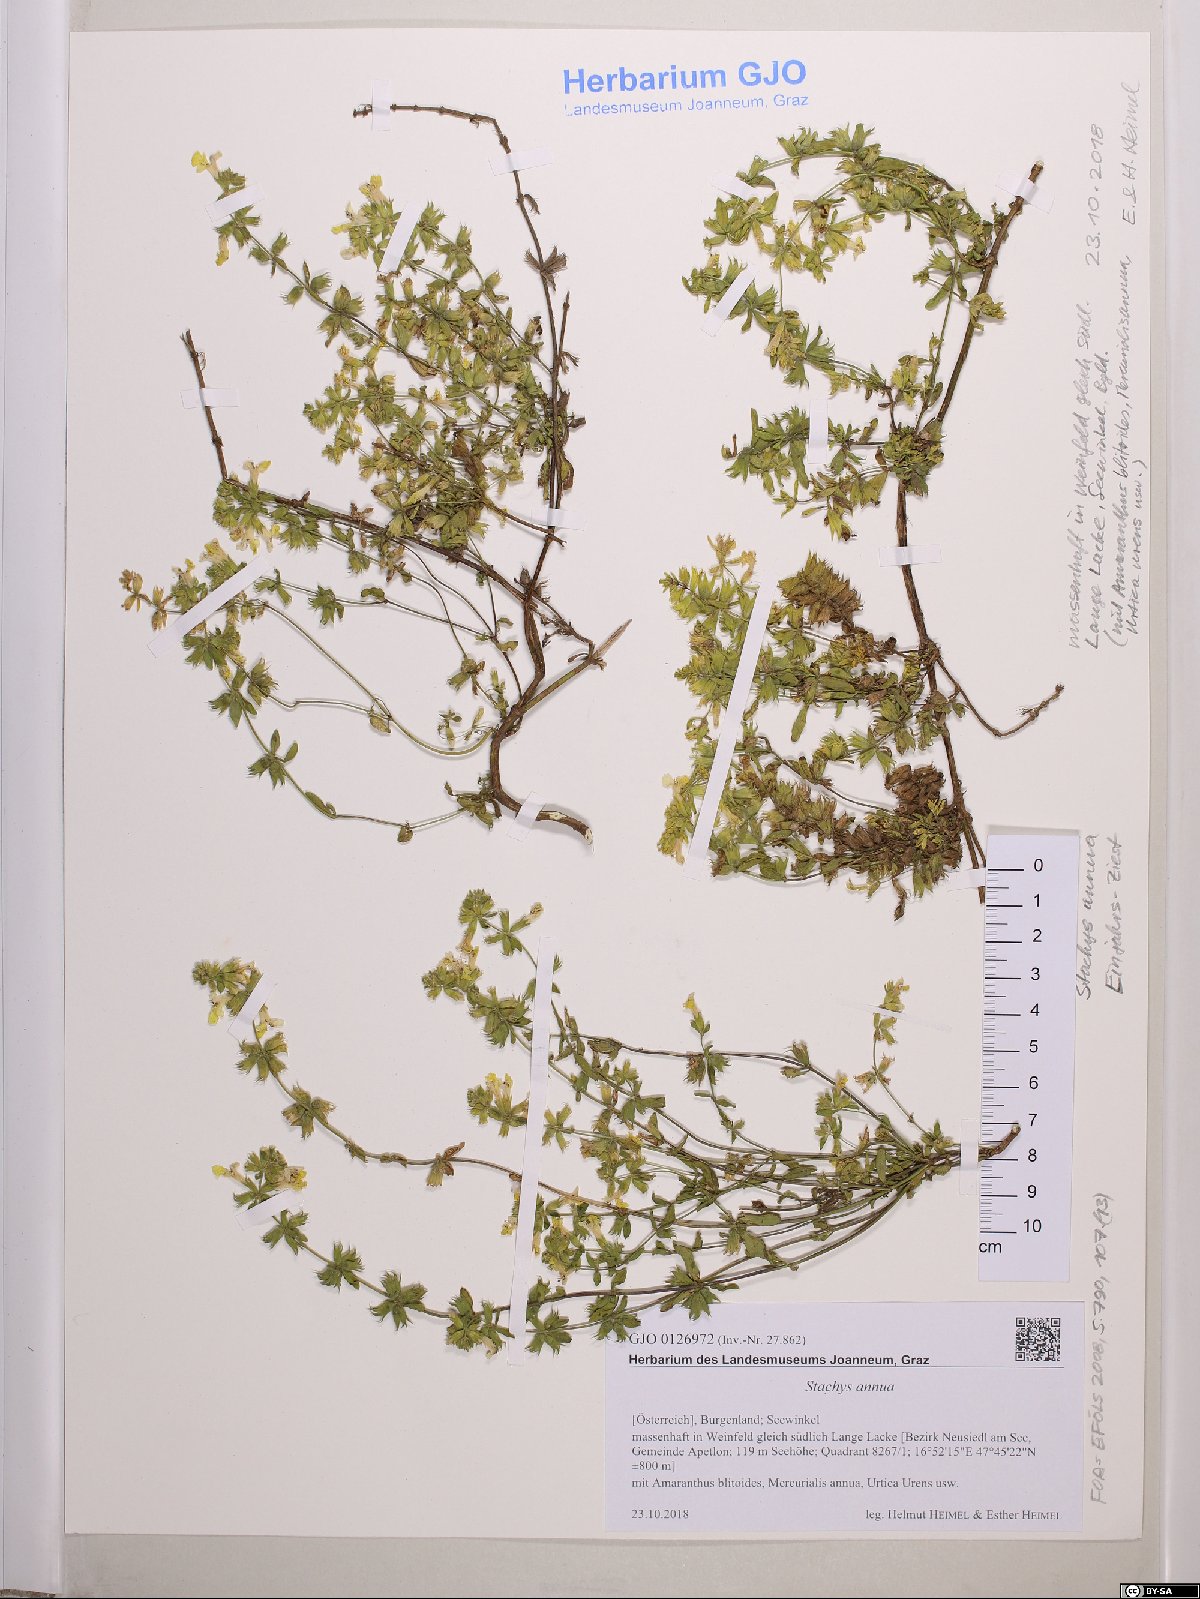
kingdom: Plantae
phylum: Tracheophyta
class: Magnoliopsida
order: Lamiales
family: Lamiaceae
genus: Stachys
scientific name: Stachys annua
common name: Annual yellow-woundwort
